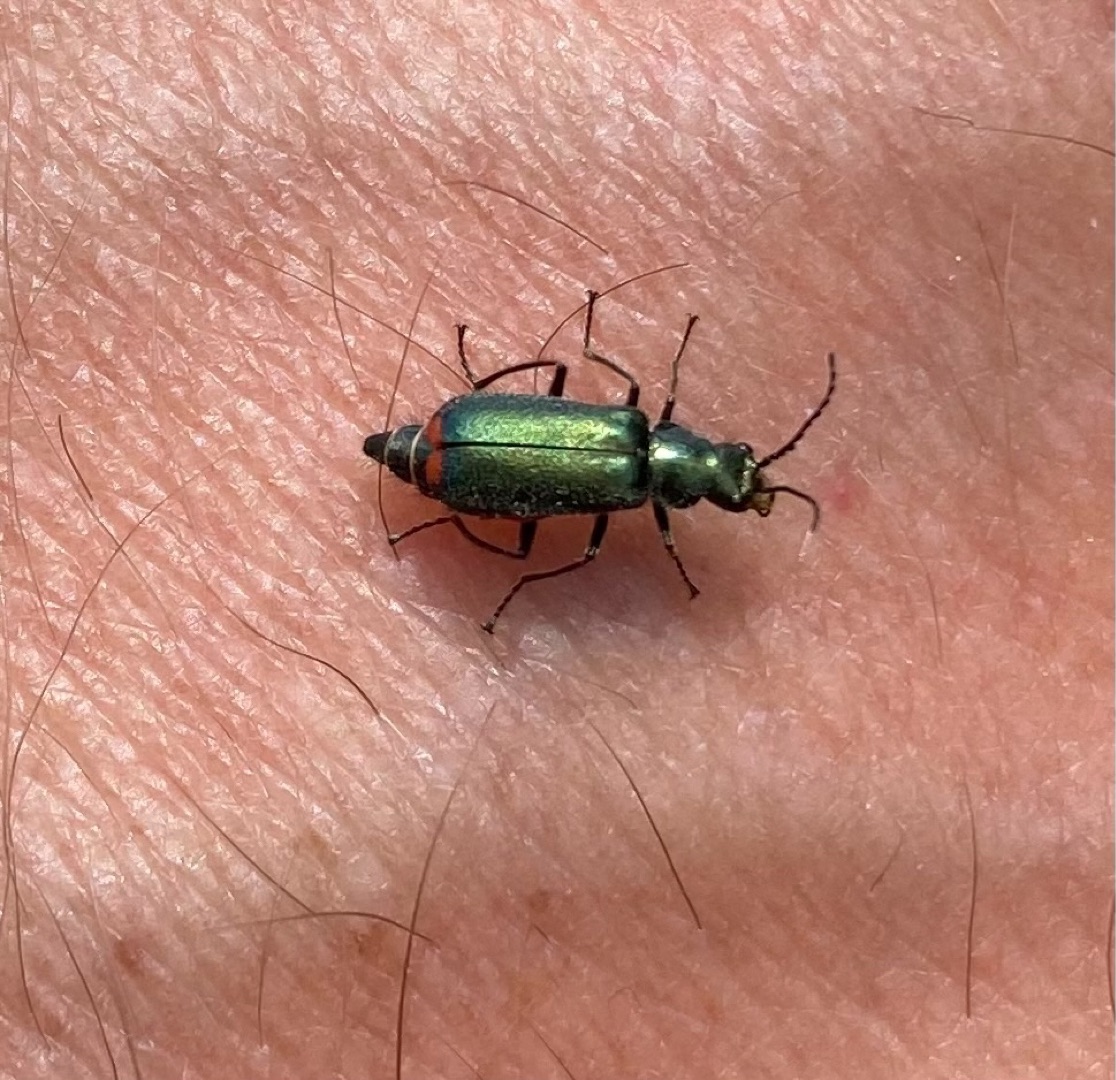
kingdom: Animalia
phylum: Arthropoda
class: Insecta
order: Coleoptera
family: Melyridae
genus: Malachius
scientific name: Malachius bipustulatus
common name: Skovmalakitbille
